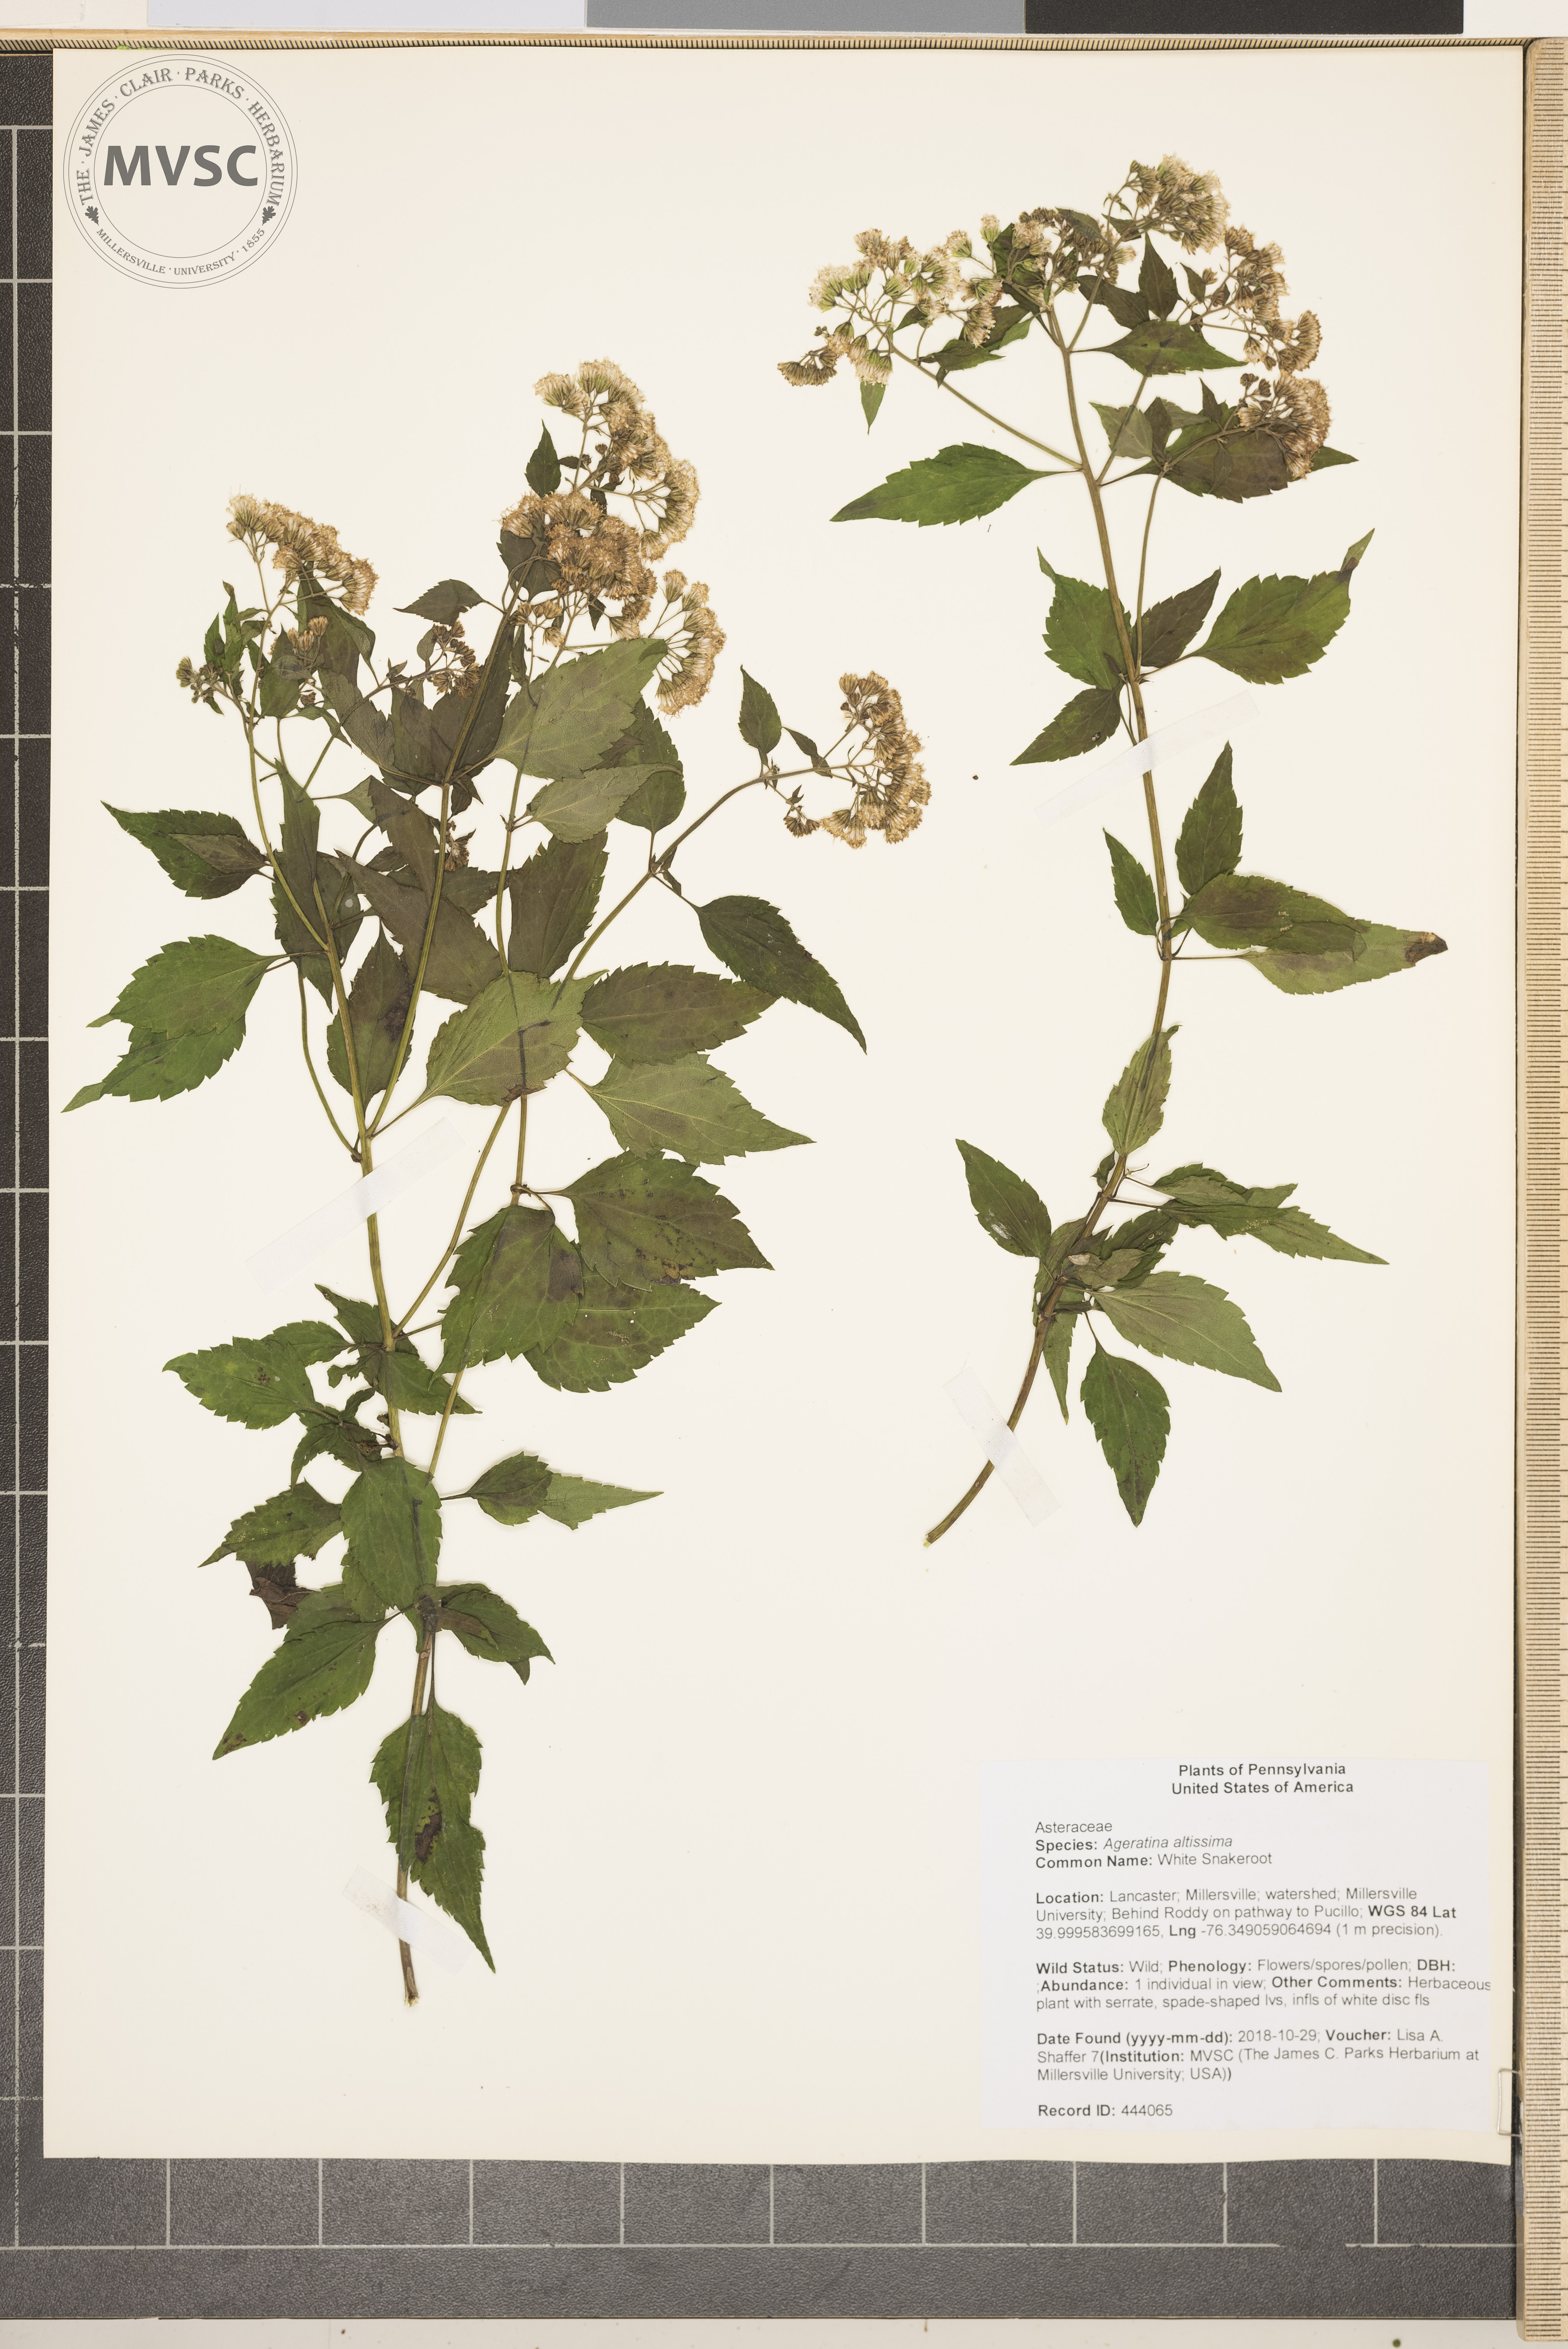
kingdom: Plantae
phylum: Tracheophyta
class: Magnoliopsida
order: Asterales
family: Asteraceae
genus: Ageratina
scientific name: Ageratina altissima
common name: White Snakeroot
